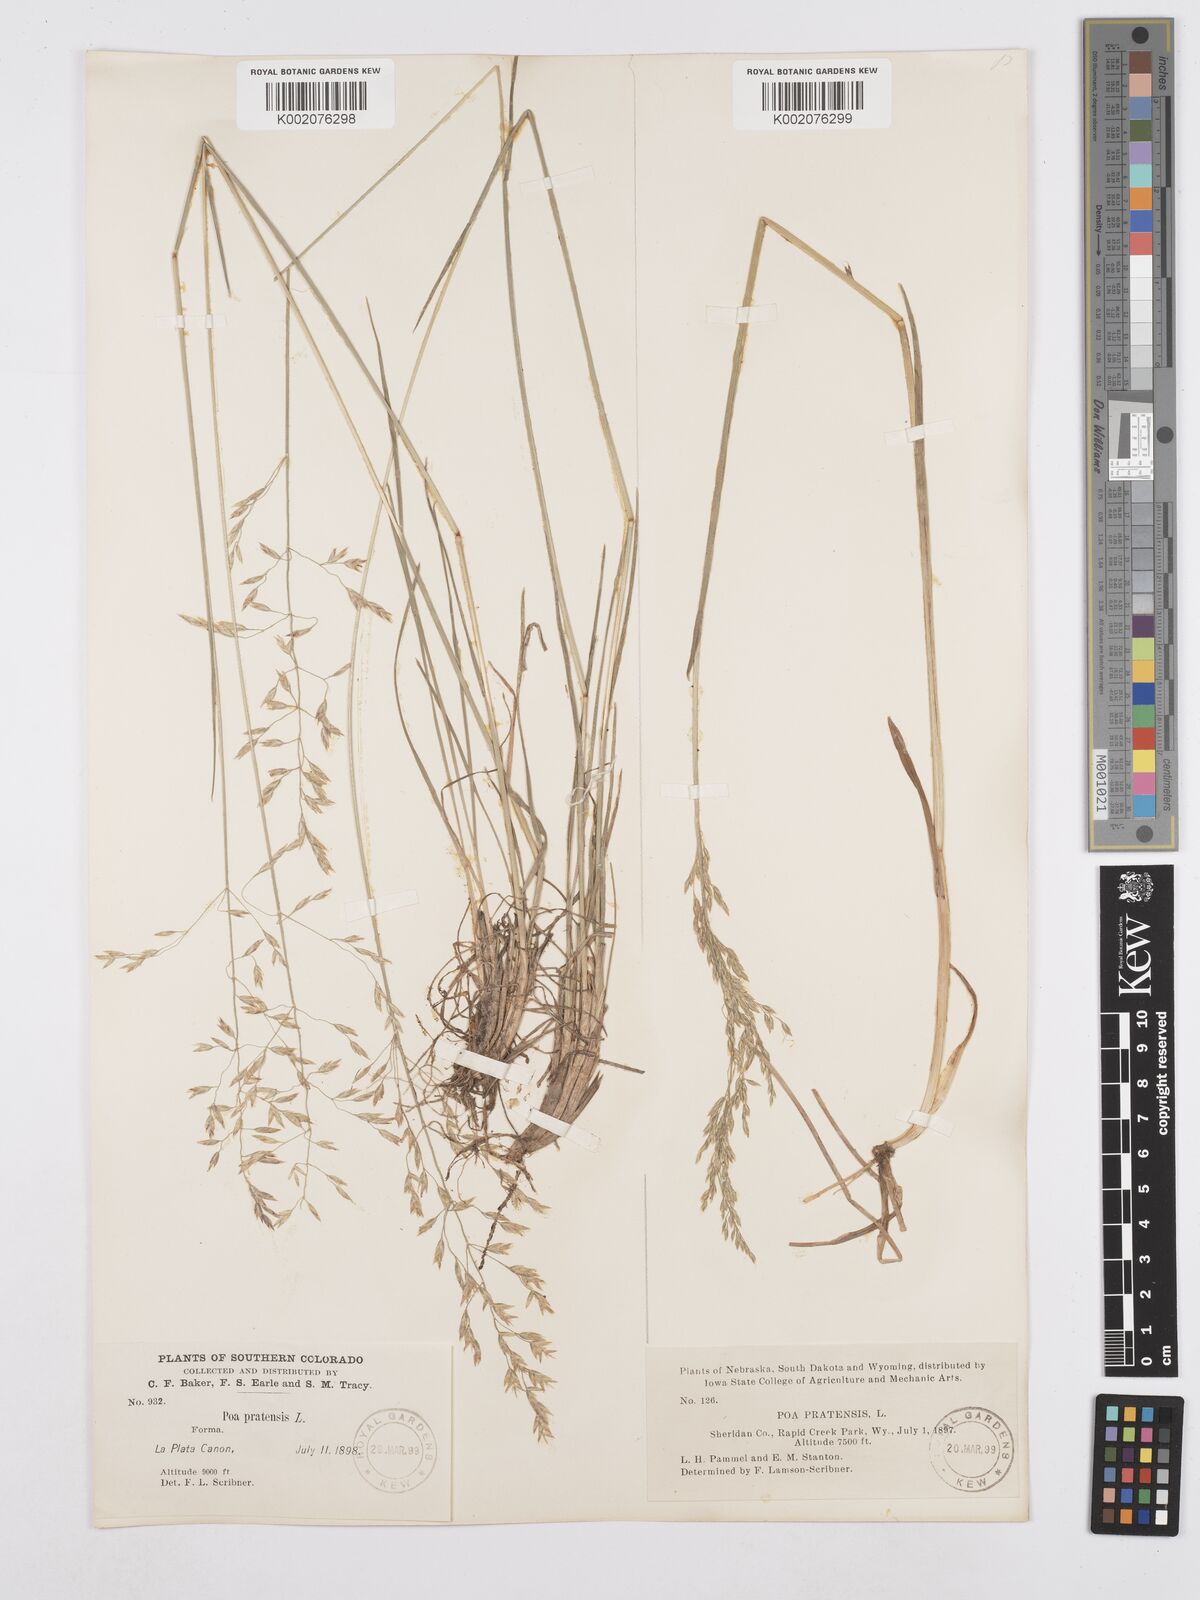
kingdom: Plantae
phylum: Tracheophyta
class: Liliopsida
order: Poales
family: Poaceae
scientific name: Poaceae
